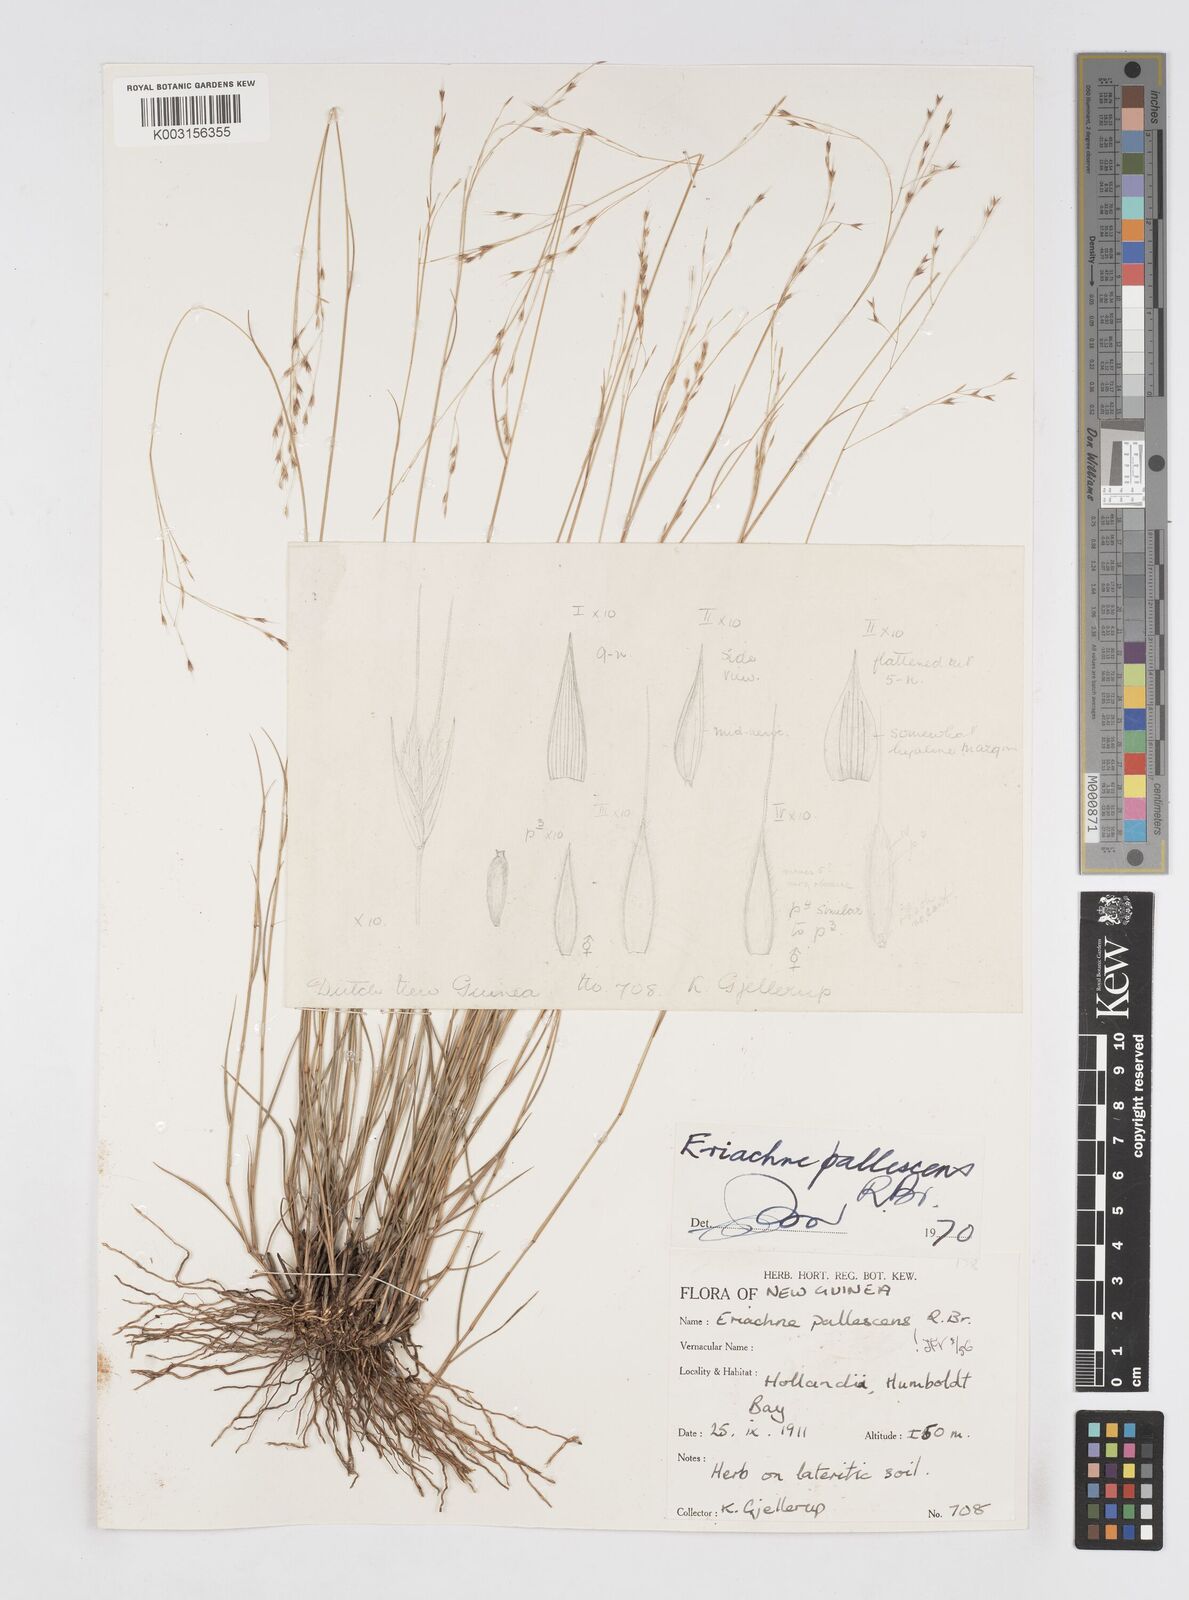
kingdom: Plantae
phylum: Tracheophyta
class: Liliopsida
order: Poales
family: Poaceae
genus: Eriachne
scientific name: Eriachne pallescens
